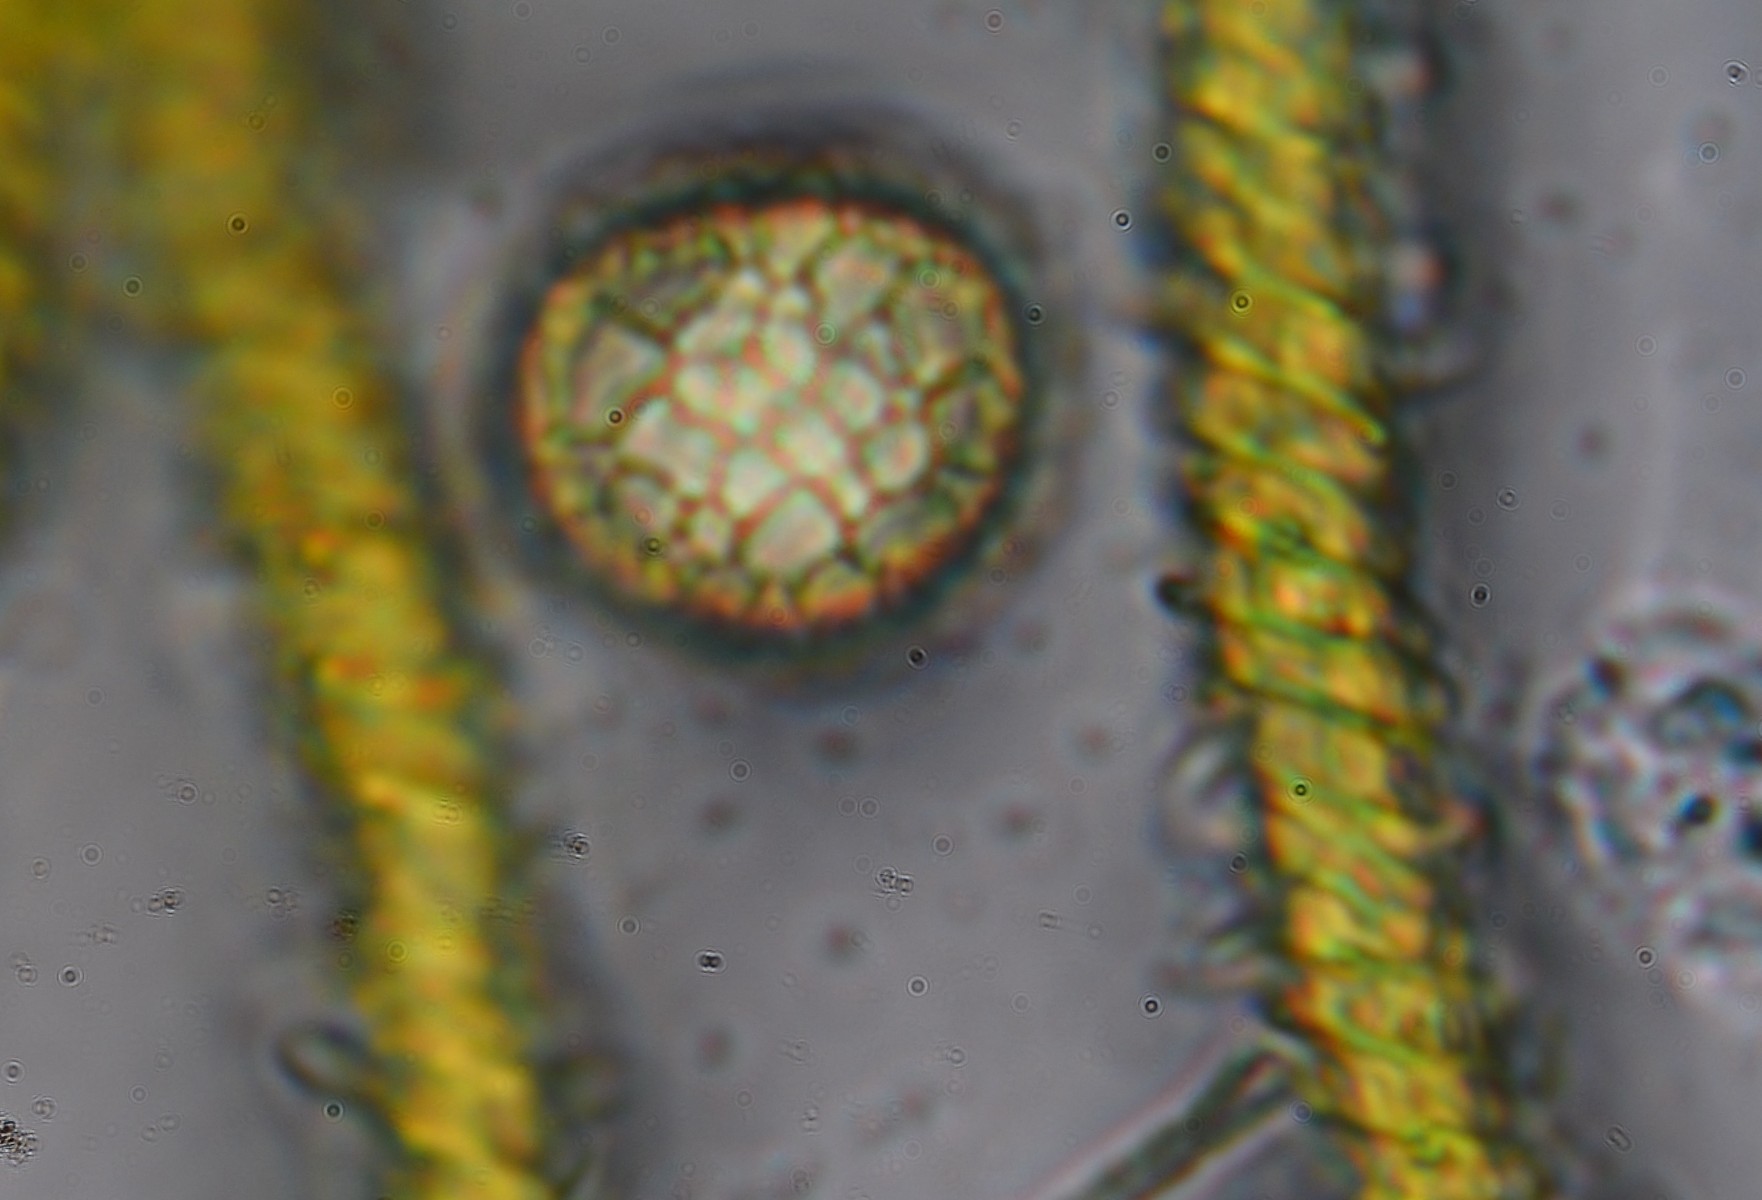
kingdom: Protozoa
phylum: Mycetozoa
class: Myxomycetes
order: Trichiales
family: Trichiaceae
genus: Trichia
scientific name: Trichia scabra
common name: tæppe-hårbold
